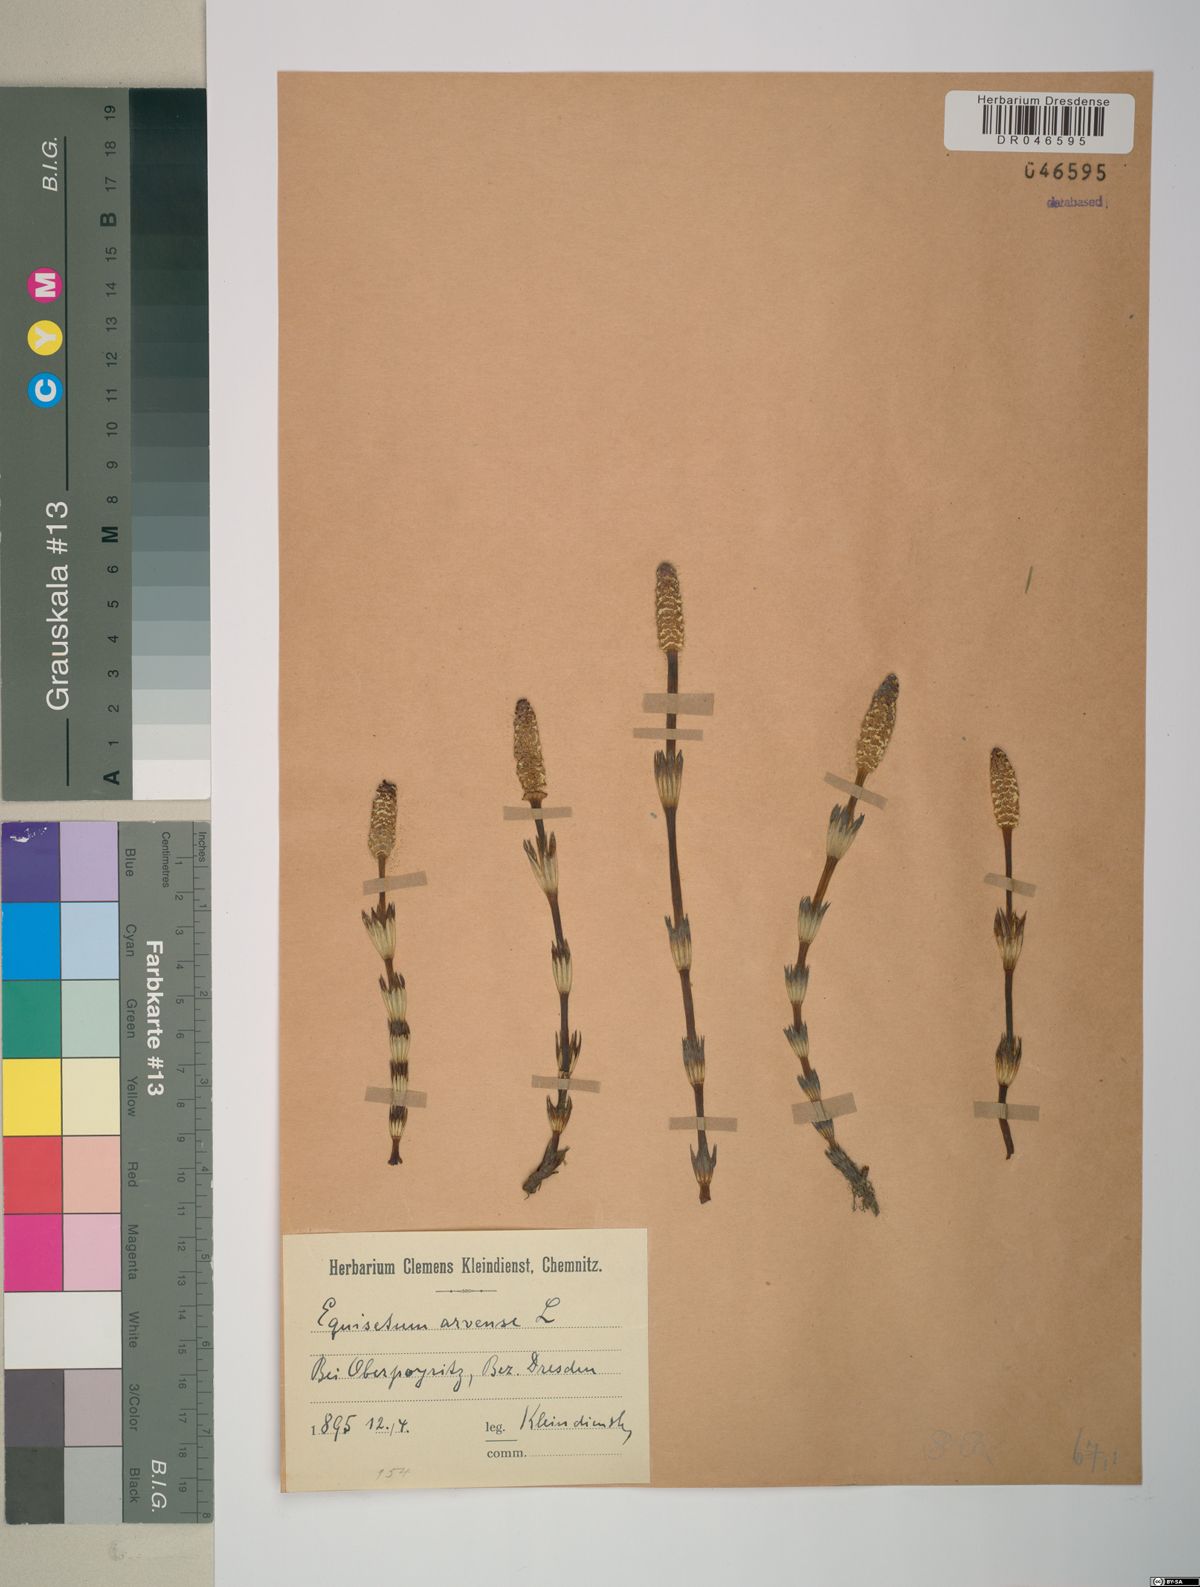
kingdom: Plantae
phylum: Tracheophyta
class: Polypodiopsida
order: Equisetales
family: Equisetaceae
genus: Equisetum
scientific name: Equisetum arvense
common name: Field horsetail
